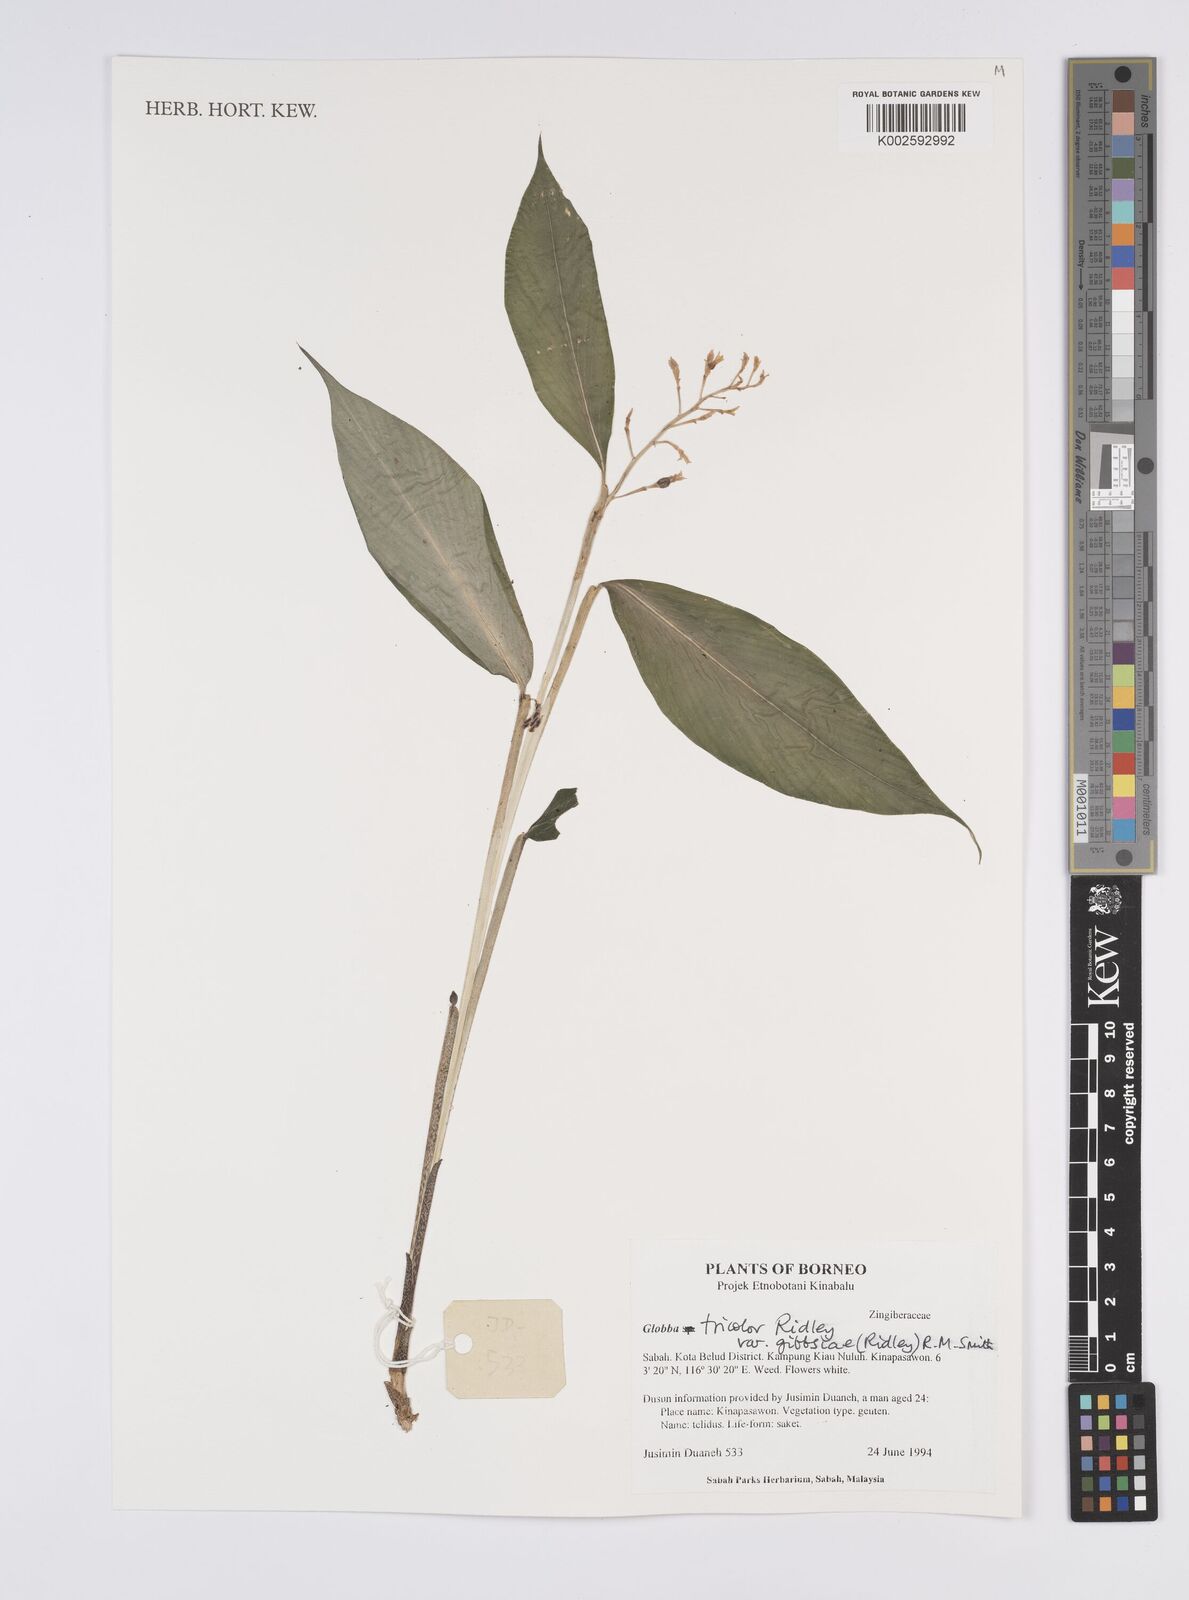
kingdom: Plantae
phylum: Tracheophyta
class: Liliopsida
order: Zingiberales
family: Zingiberaceae
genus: Globba
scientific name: Globba tricolor
